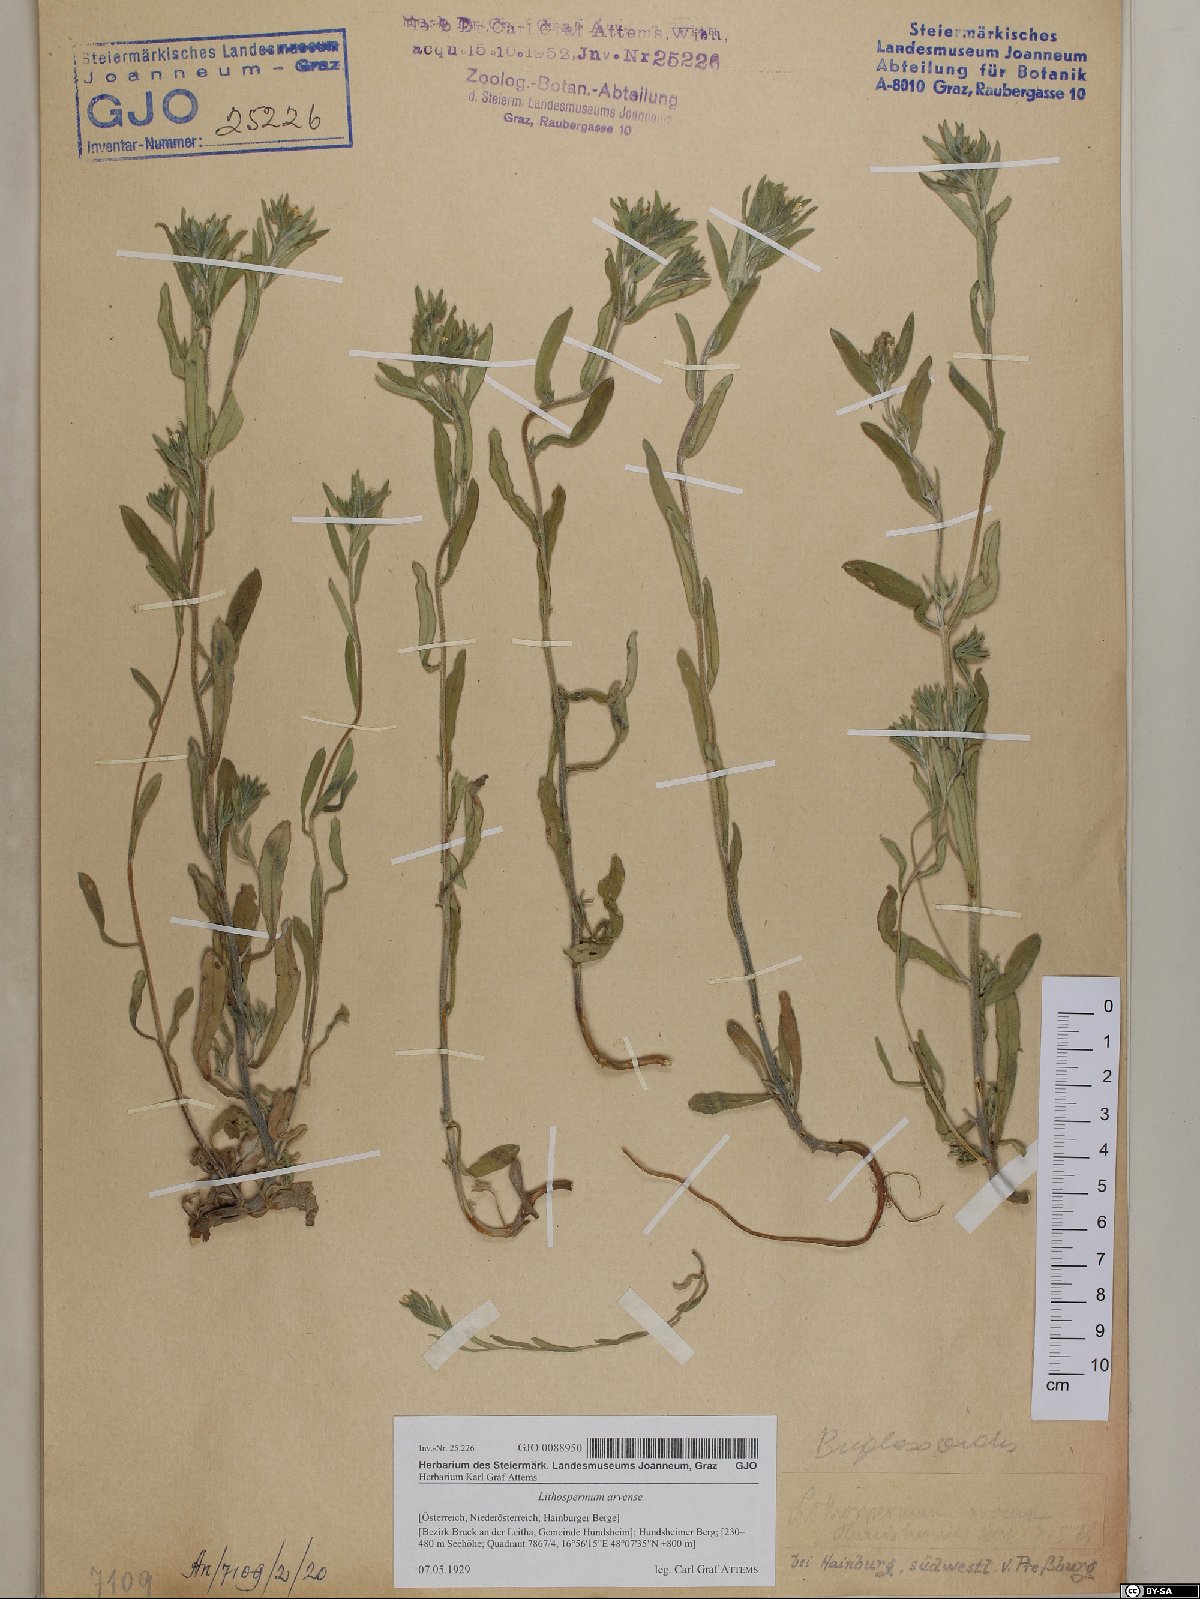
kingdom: Plantae
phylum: Tracheophyta
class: Magnoliopsida
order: Boraginales
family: Boraginaceae
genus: Buglossoides
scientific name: Buglossoides arvensis
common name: Corn gromwell
